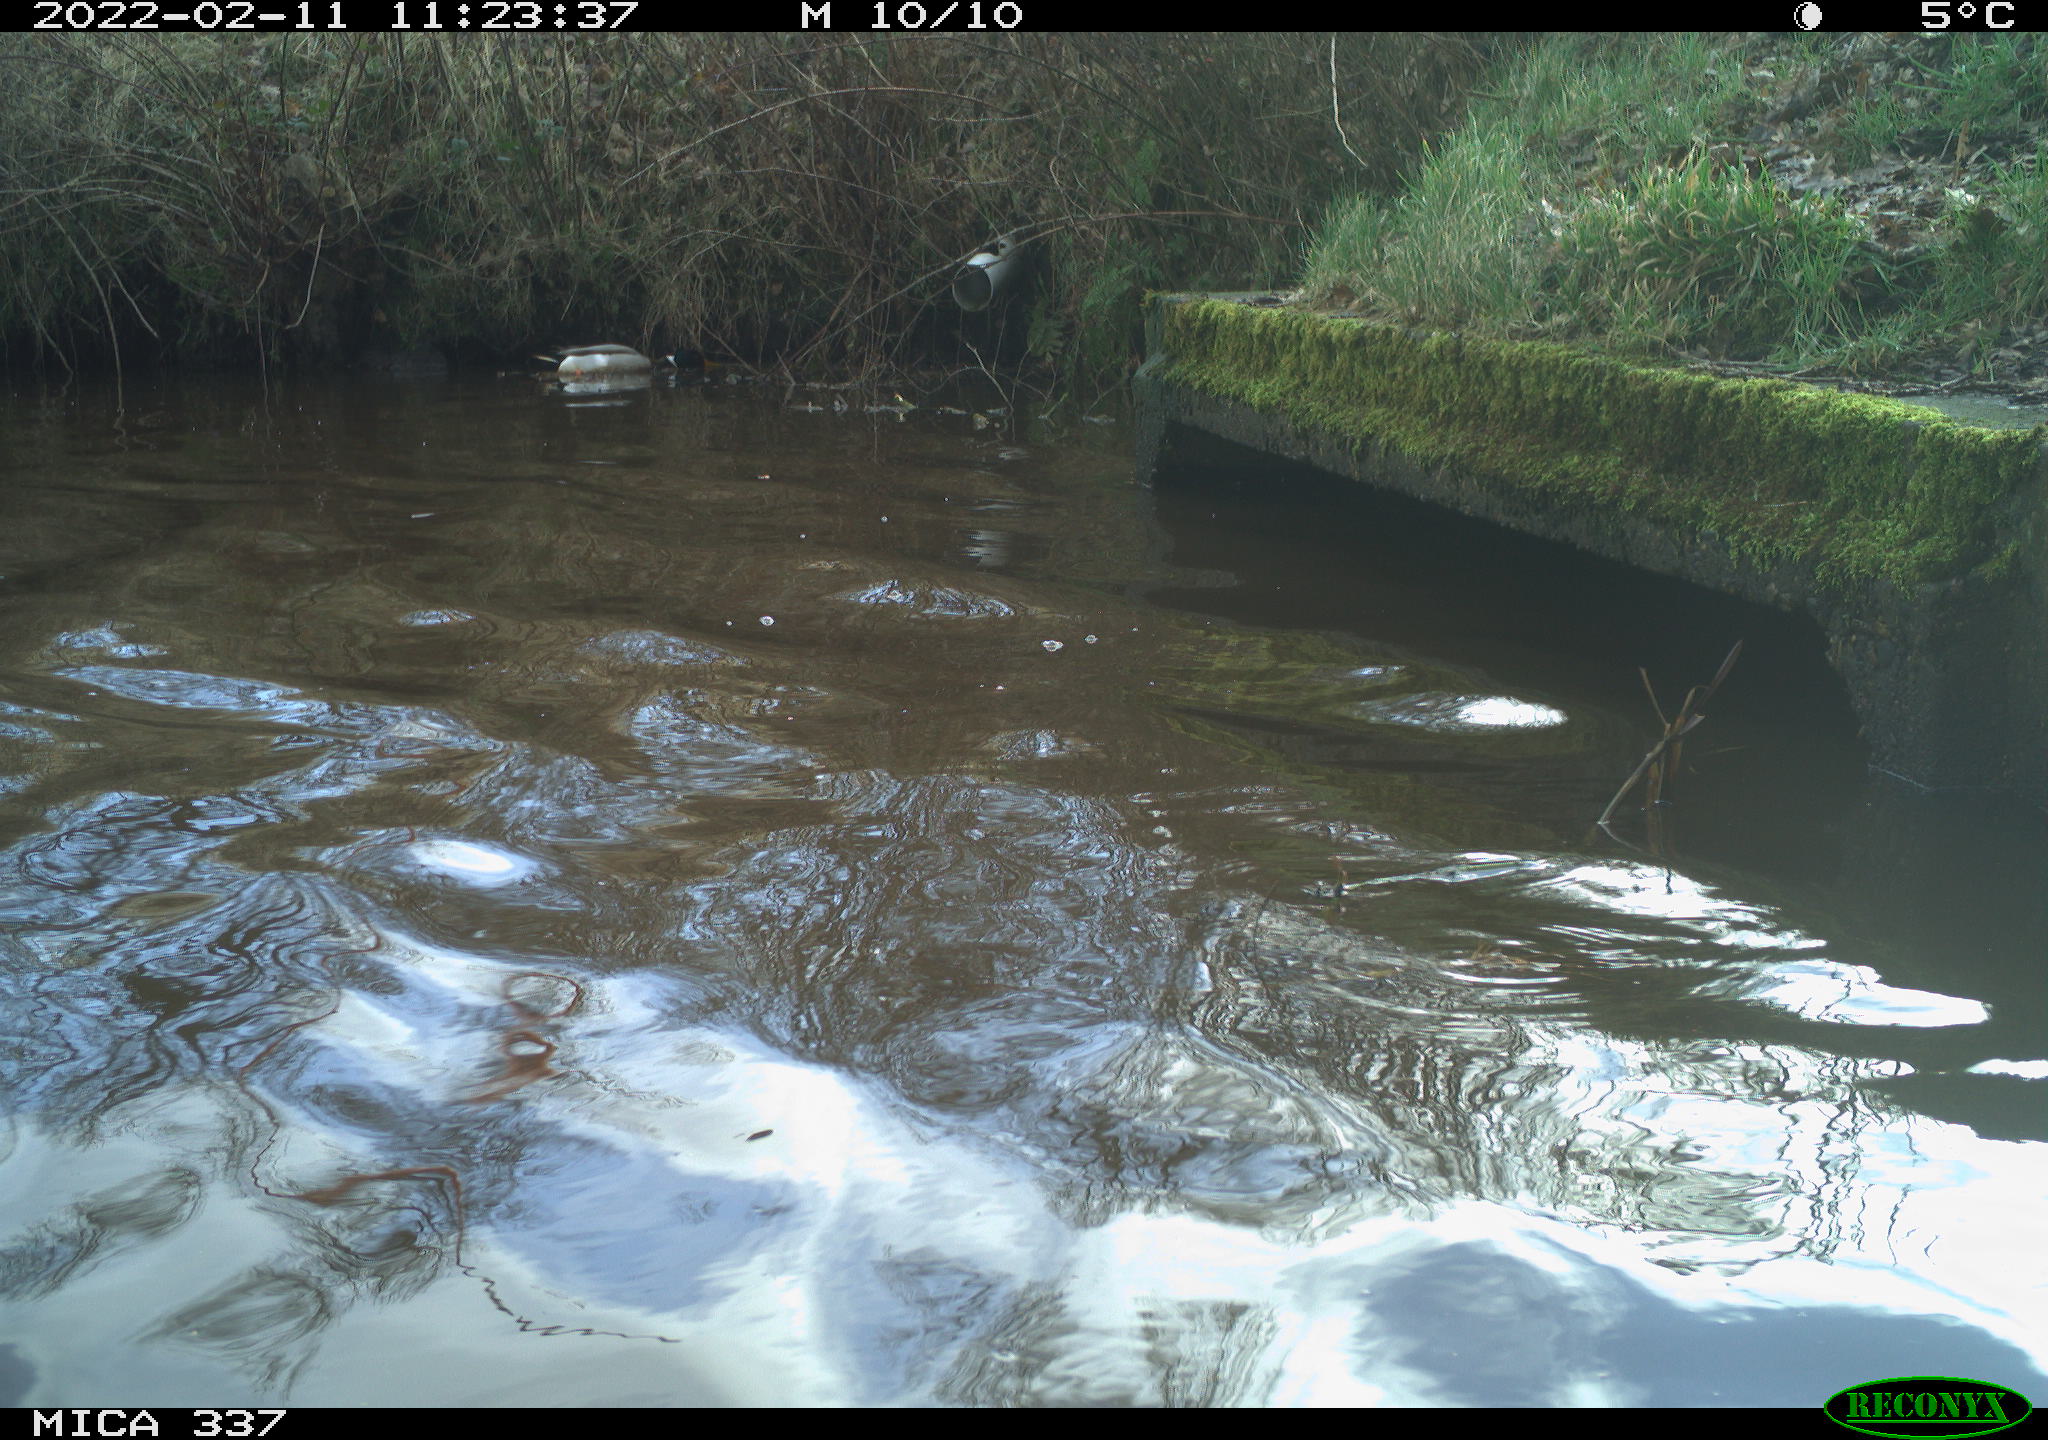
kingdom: Animalia
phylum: Chordata
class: Aves
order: Anseriformes
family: Anatidae
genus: Anas
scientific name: Anas platyrhynchos
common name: Mallard
